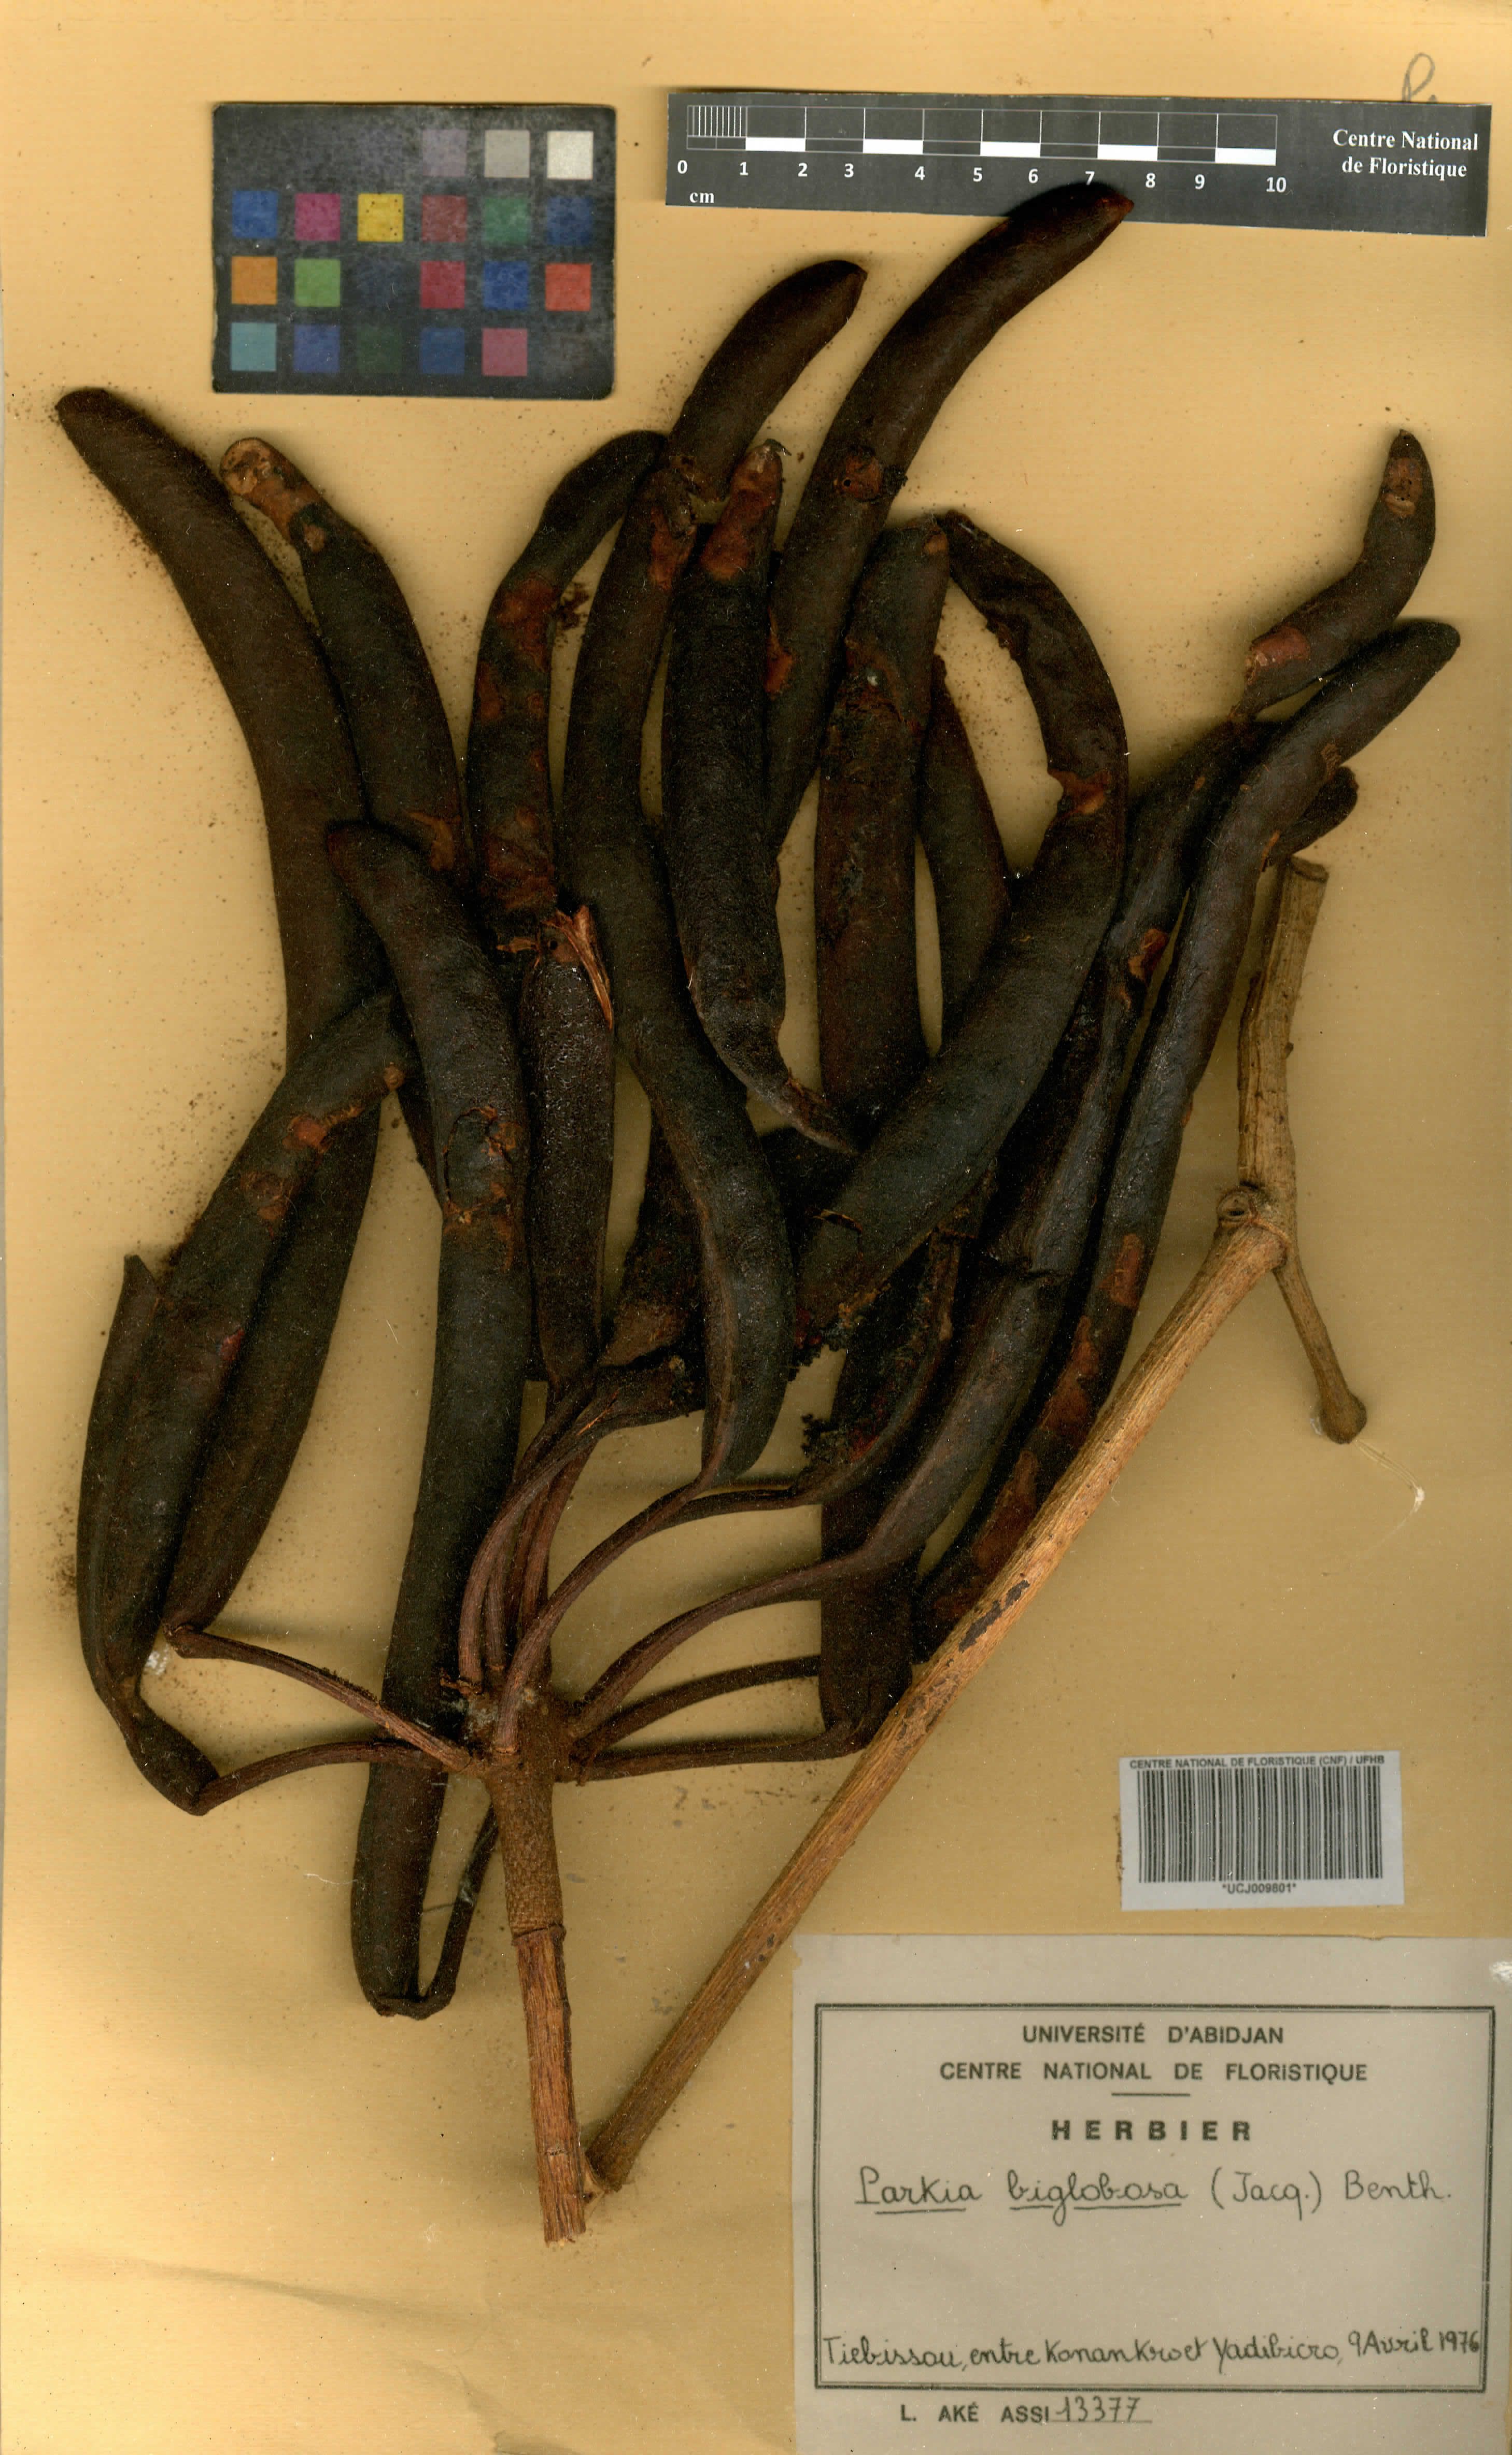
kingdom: Plantae
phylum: Tracheophyta
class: Magnoliopsida
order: Fabales
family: Fabaceae
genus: Parkia
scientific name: Parkia timoriana
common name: Legume
